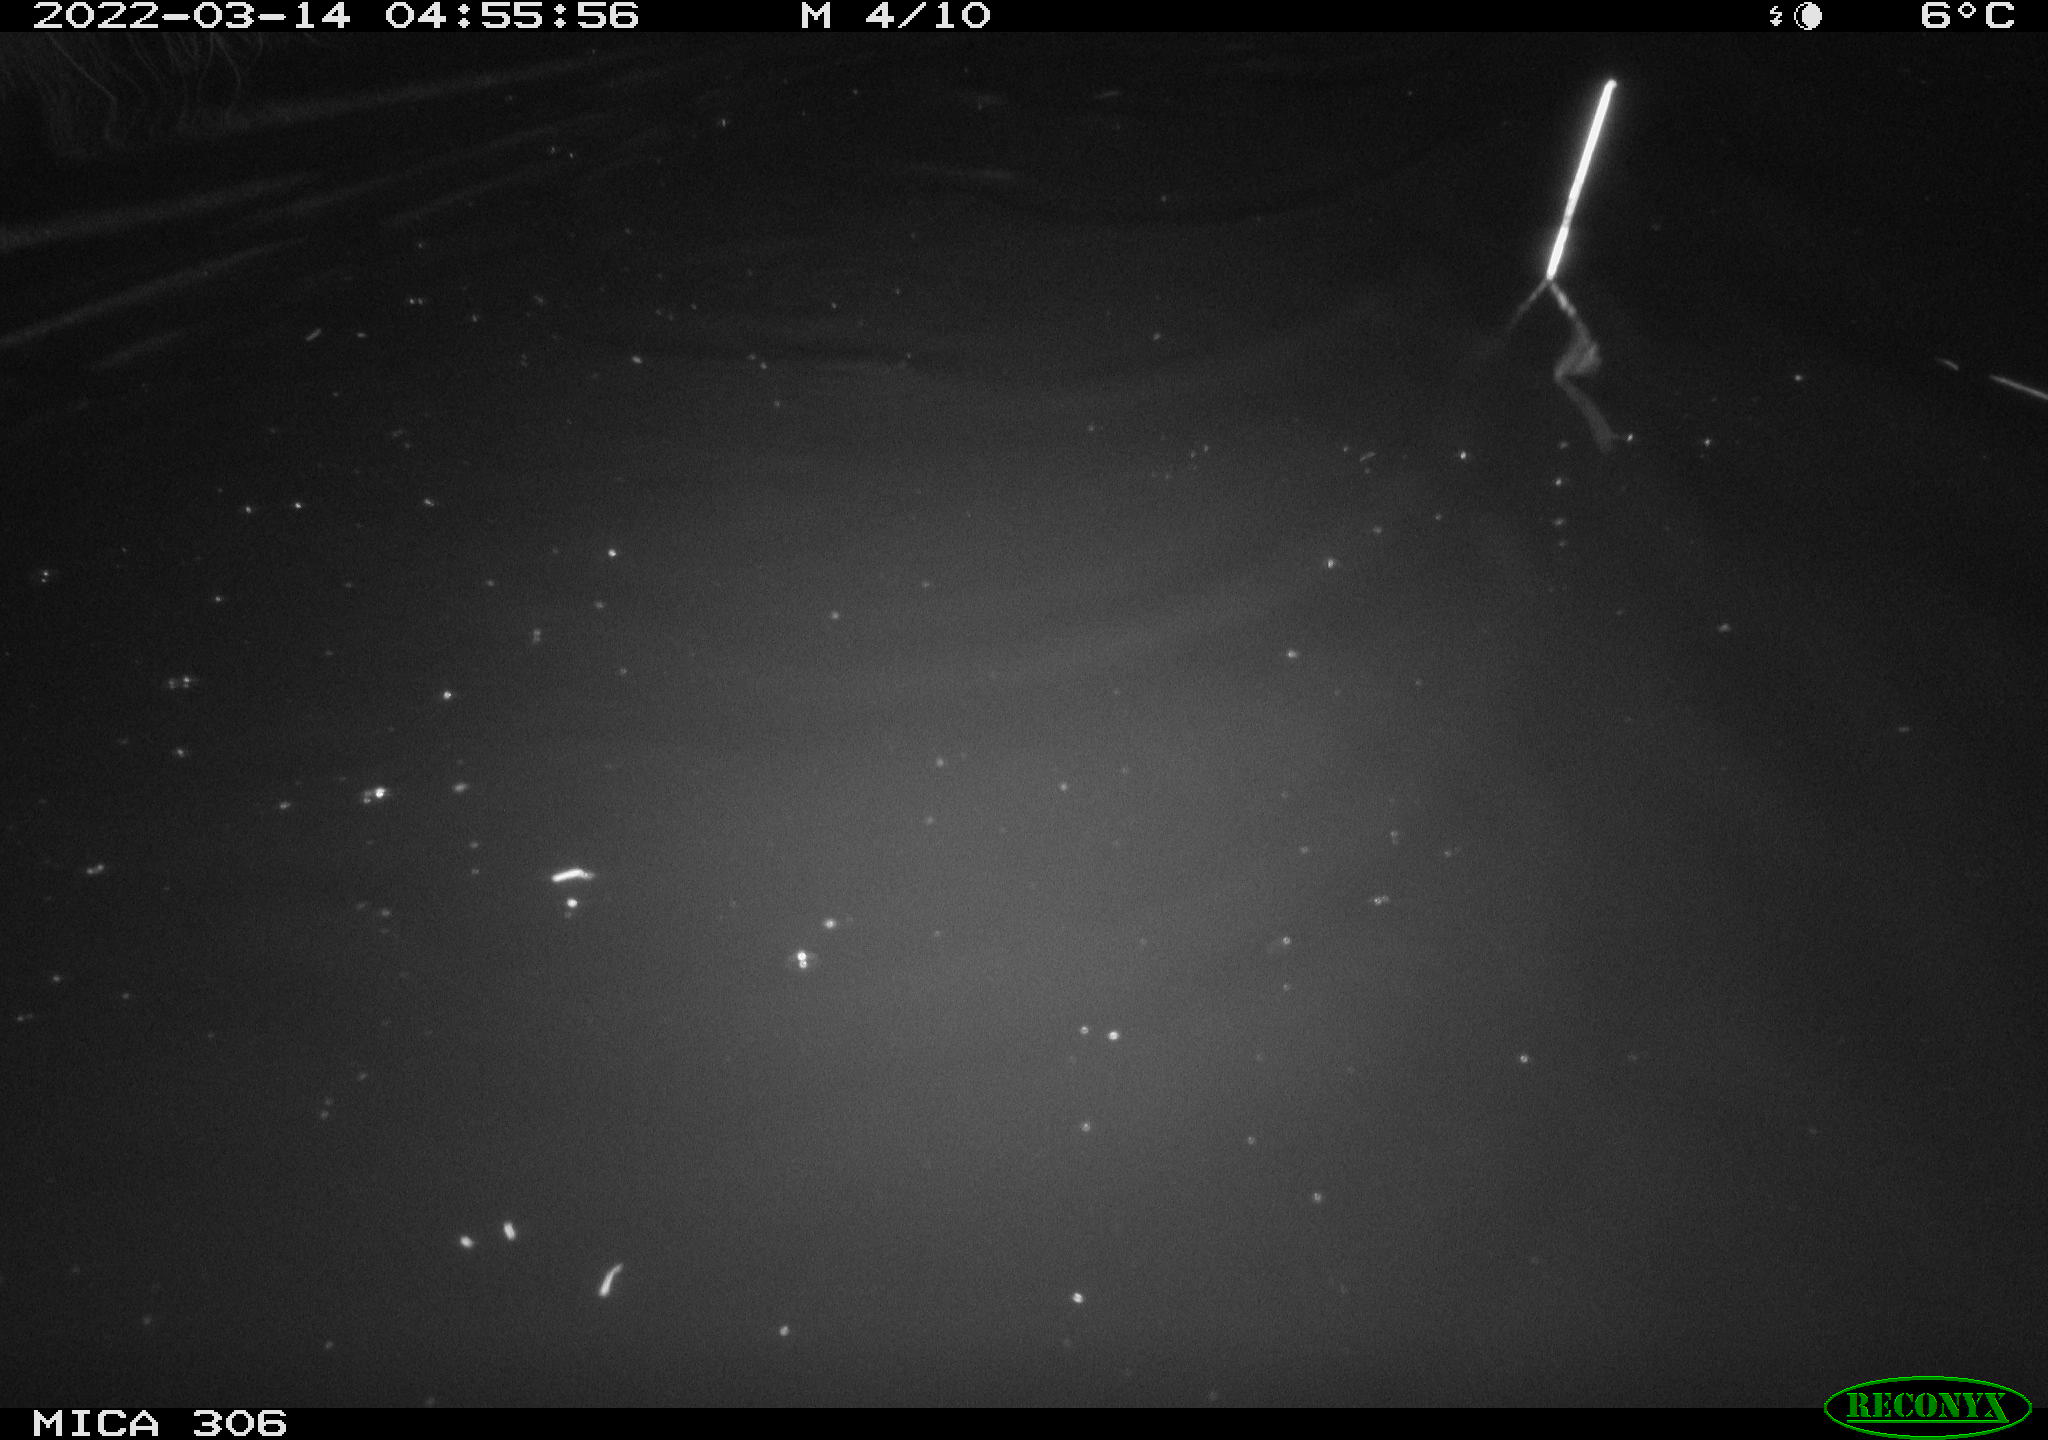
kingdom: Animalia
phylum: Chordata
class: Mammalia
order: Rodentia
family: Cricetidae
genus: Ondatra
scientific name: Ondatra zibethicus
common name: Muskrat
